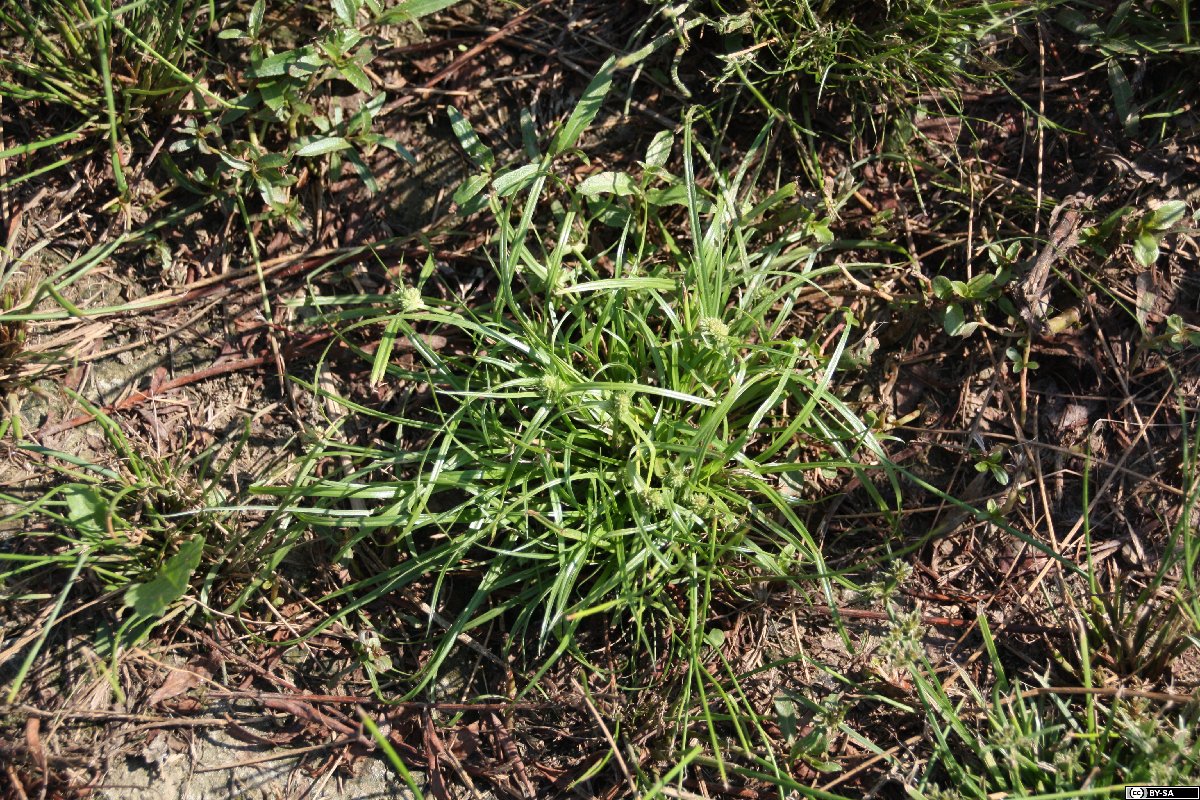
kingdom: Plantae
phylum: Tracheophyta
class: Liliopsida
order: Poales
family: Cyperaceae
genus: Cyperus
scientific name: Cyperus michelianus
